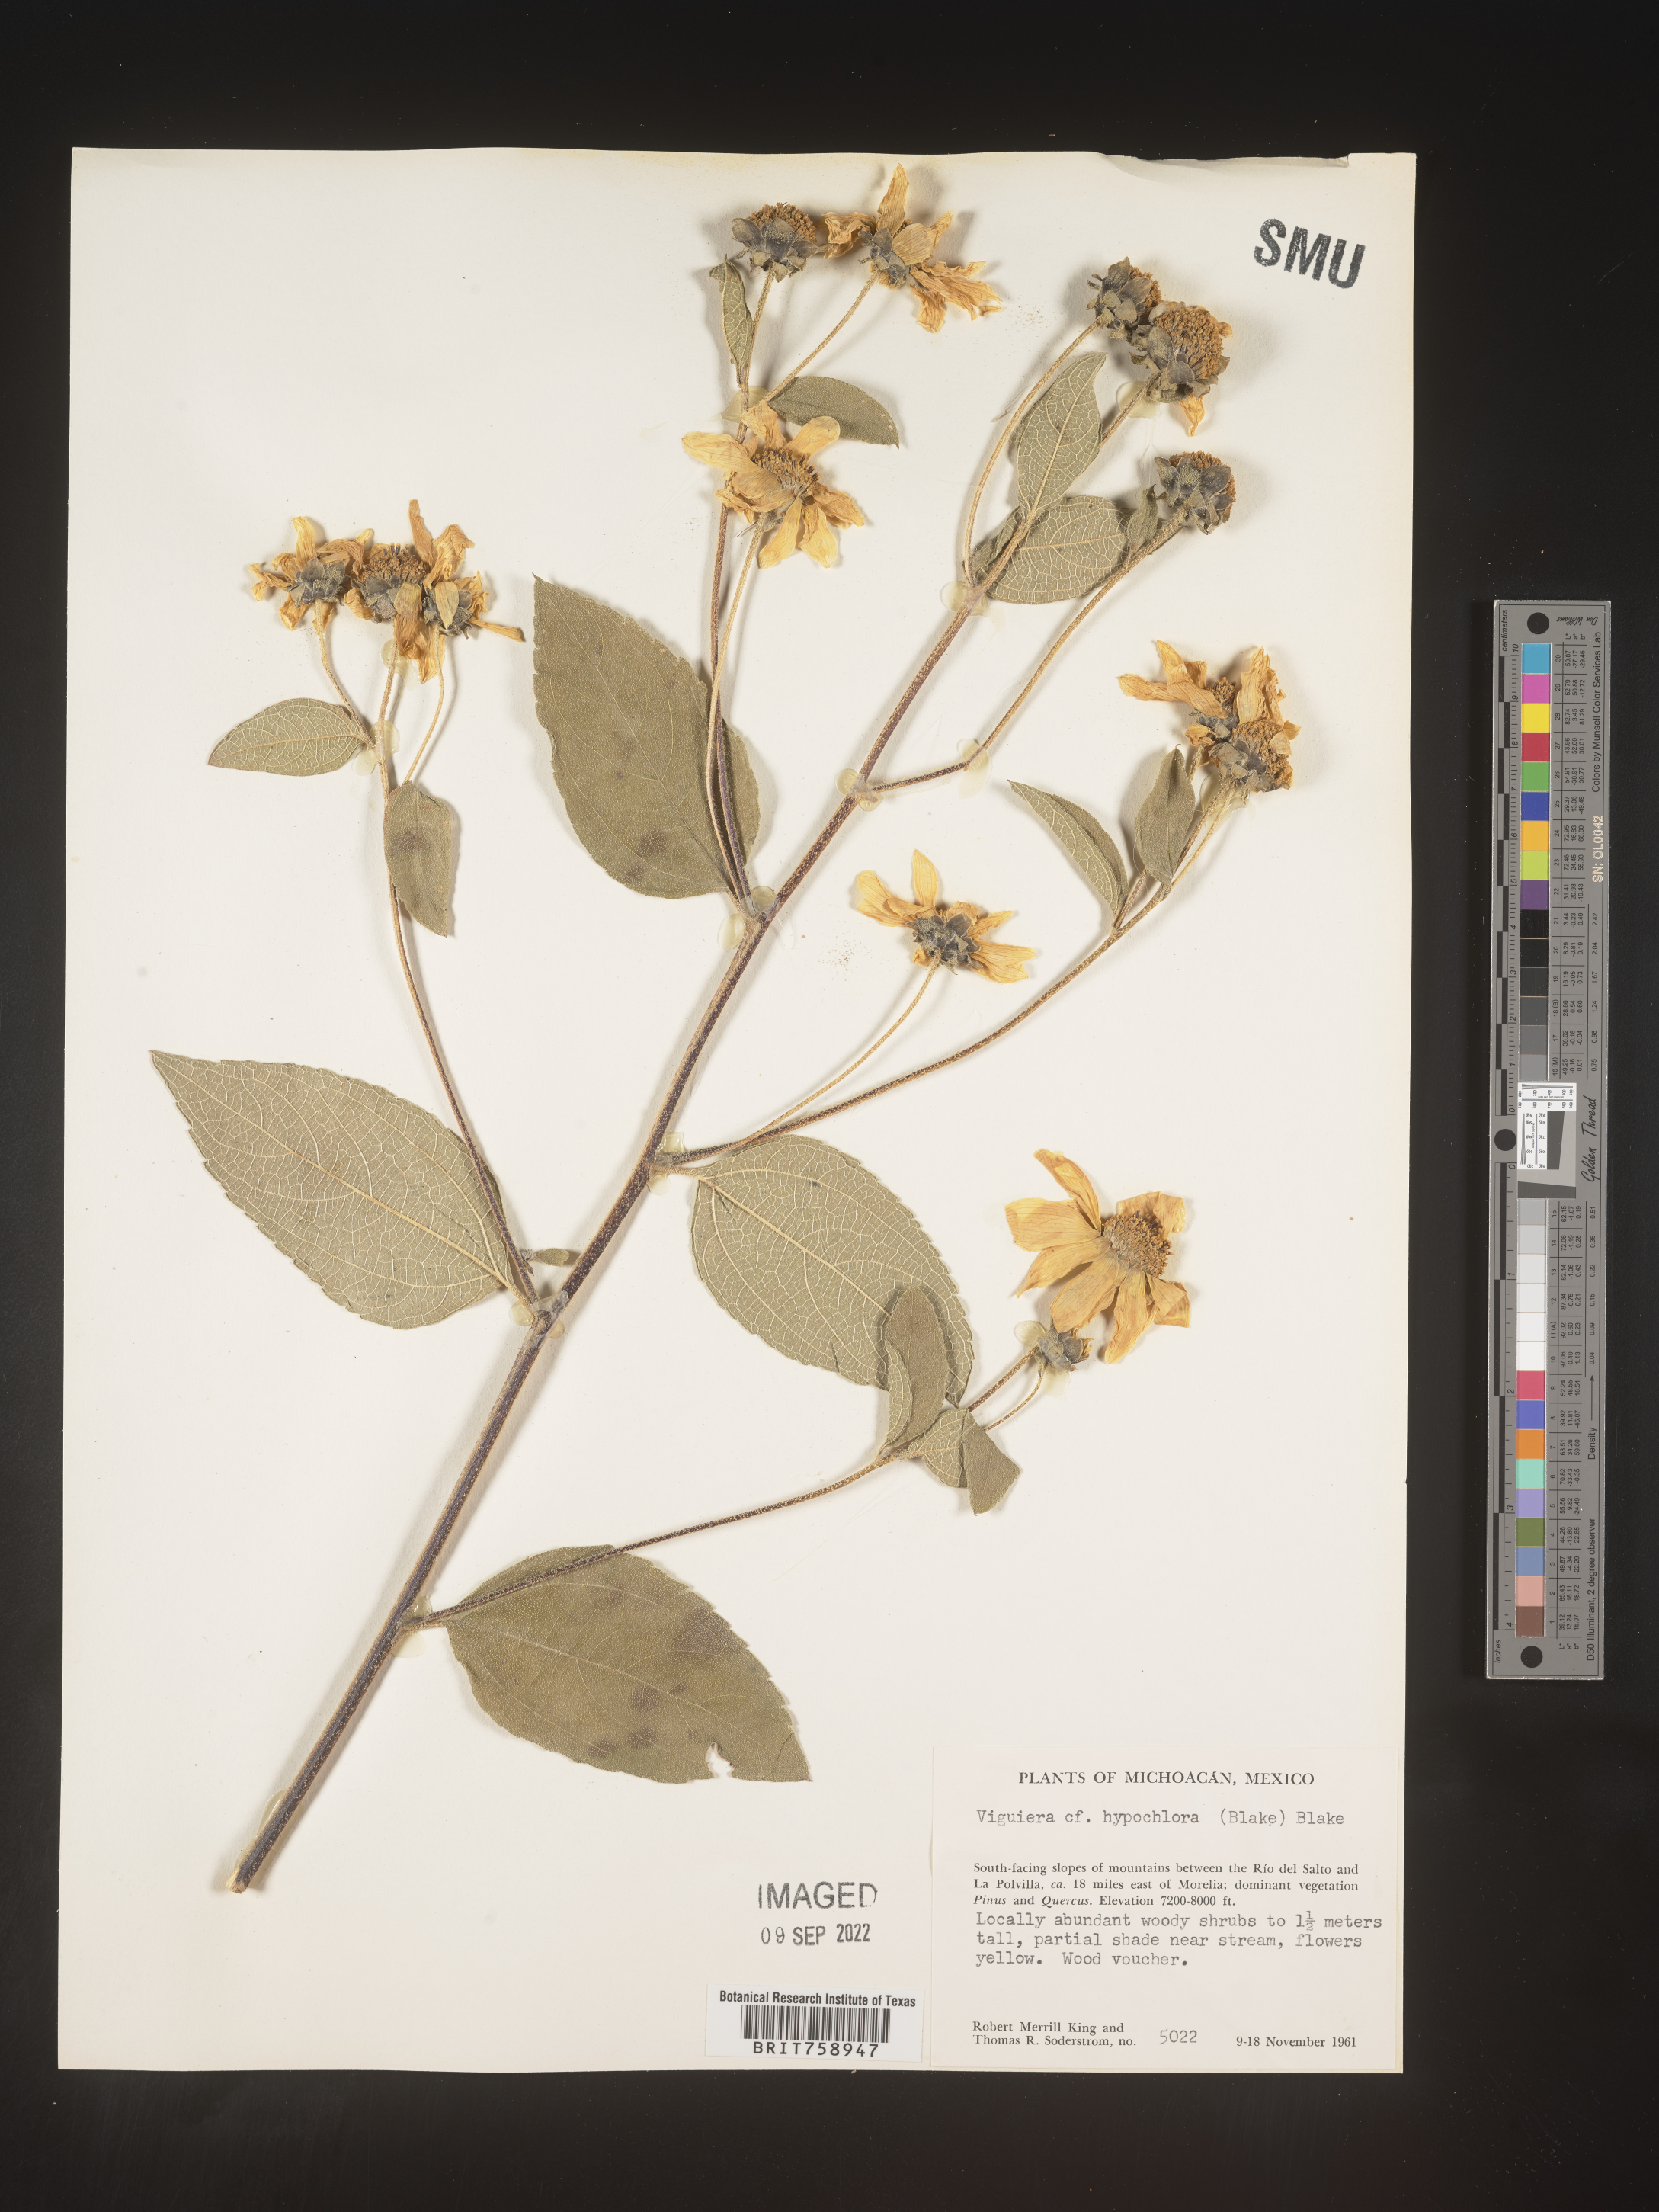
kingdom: Plantae
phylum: Tracheophyta
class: Magnoliopsida
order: Asterales
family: Asteraceae
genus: Viguiera
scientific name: Viguiera
